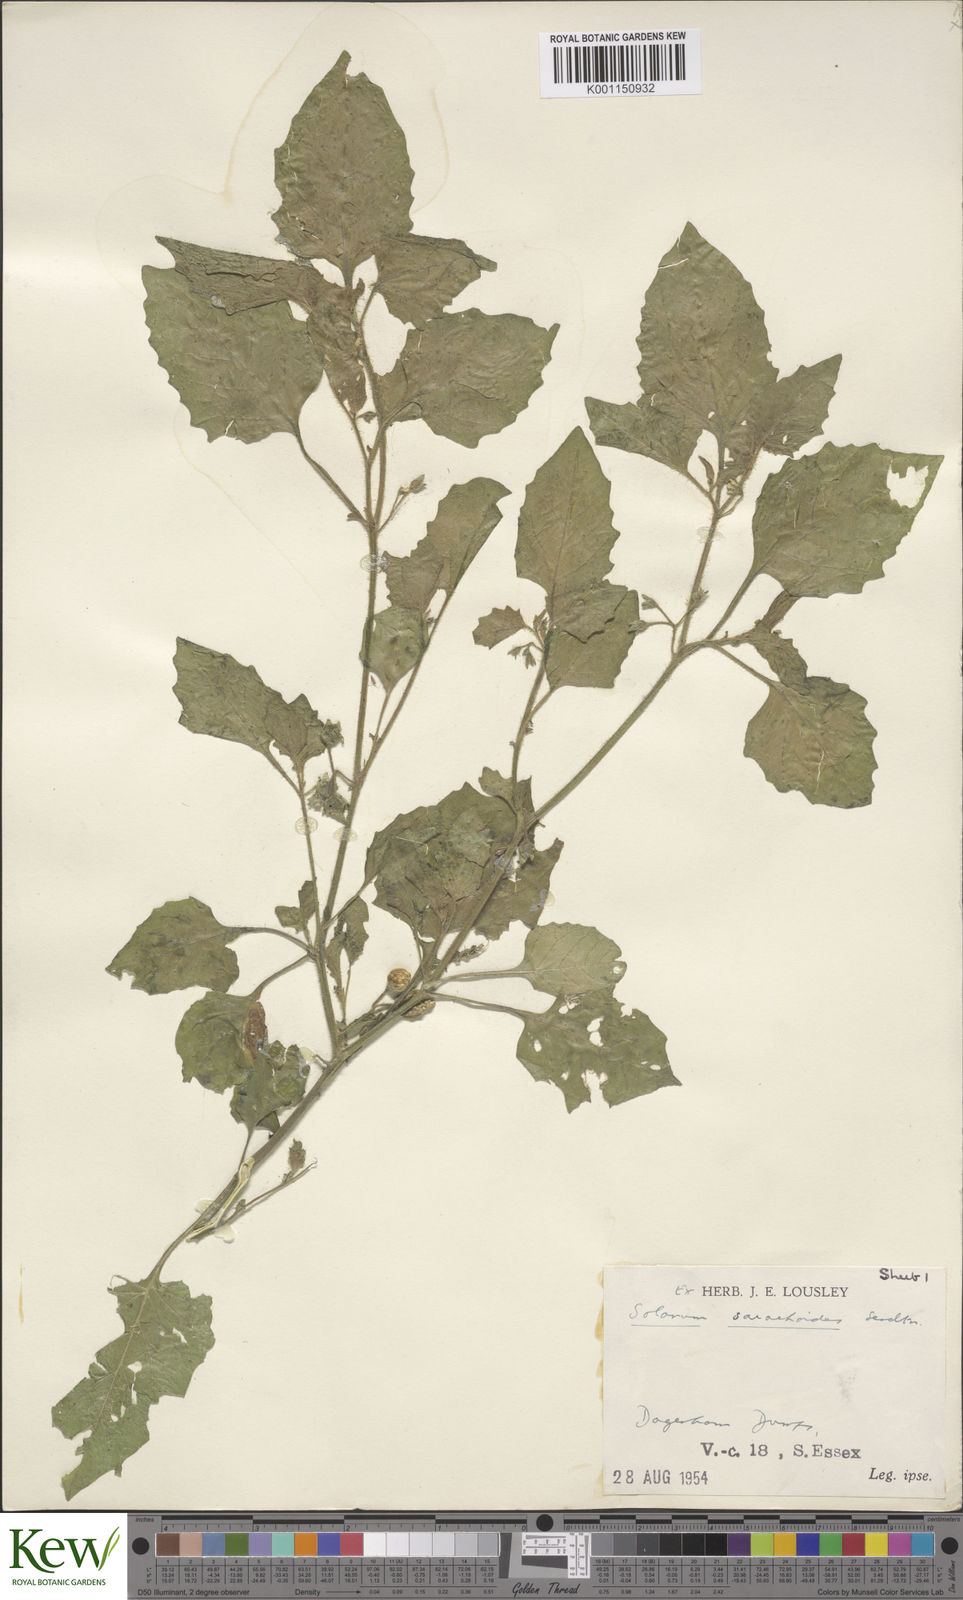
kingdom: Plantae
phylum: Tracheophyta
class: Magnoliopsida
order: Solanales
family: Solanaceae
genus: Solanum
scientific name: Solanum sarrachoides
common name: Leafy-fruited nightshade
